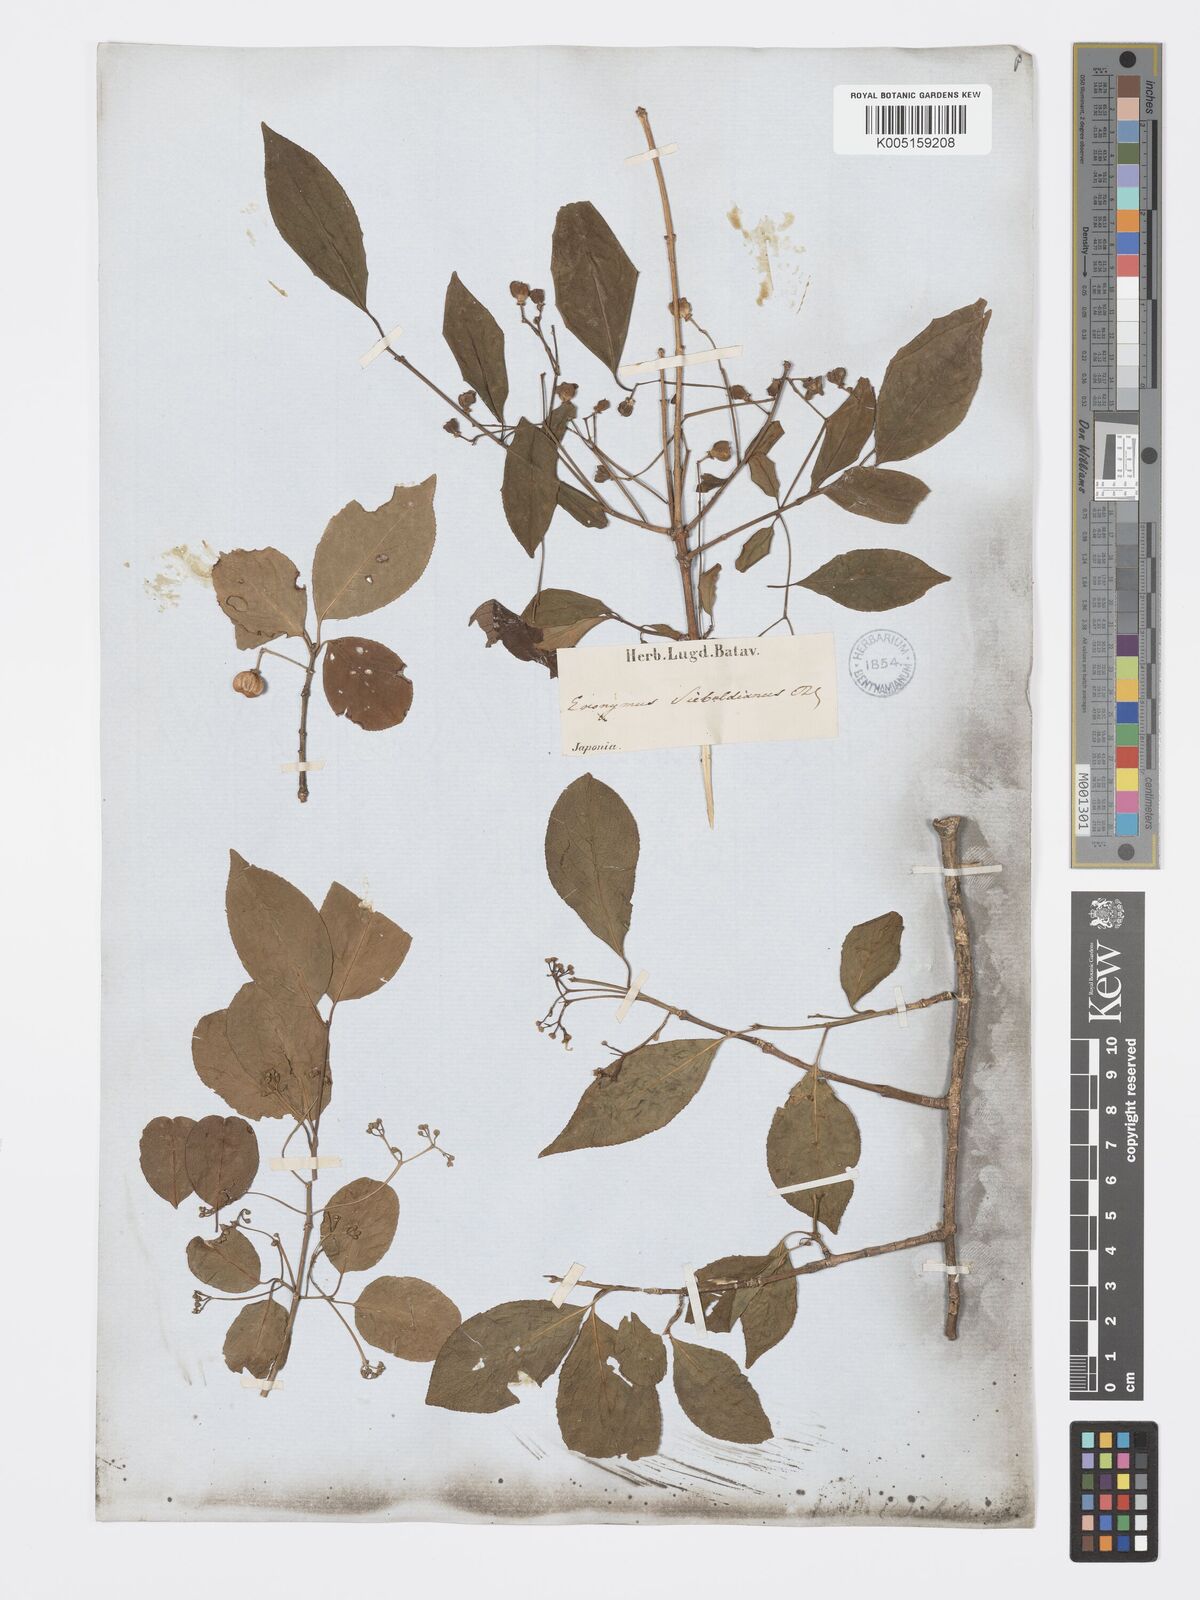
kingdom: Plantae
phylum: Tracheophyta
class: Magnoliopsida
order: Celastrales
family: Celastraceae
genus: Euonymus
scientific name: Euonymus hamiltonianus
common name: Hamilton's spindletree
